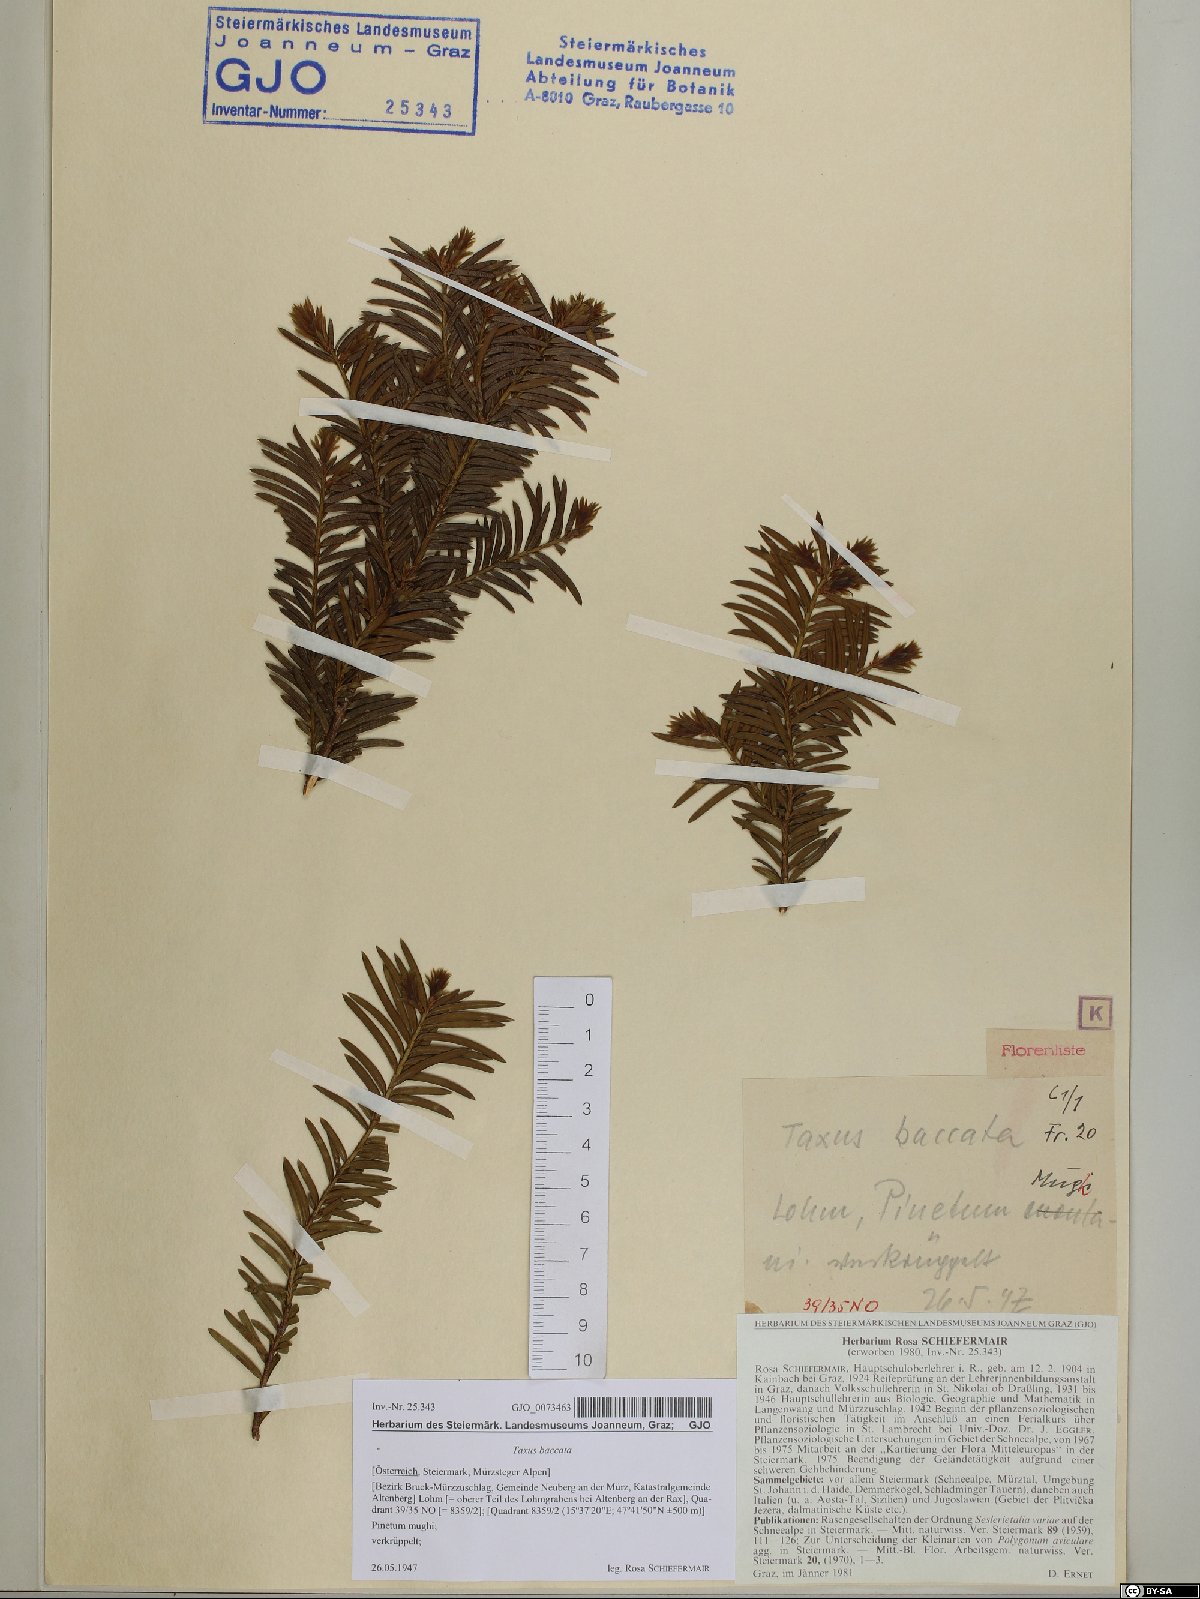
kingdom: Plantae
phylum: Tracheophyta
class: Pinopsida
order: Pinales
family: Taxaceae
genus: Taxus
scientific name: Taxus baccata
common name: Yew
